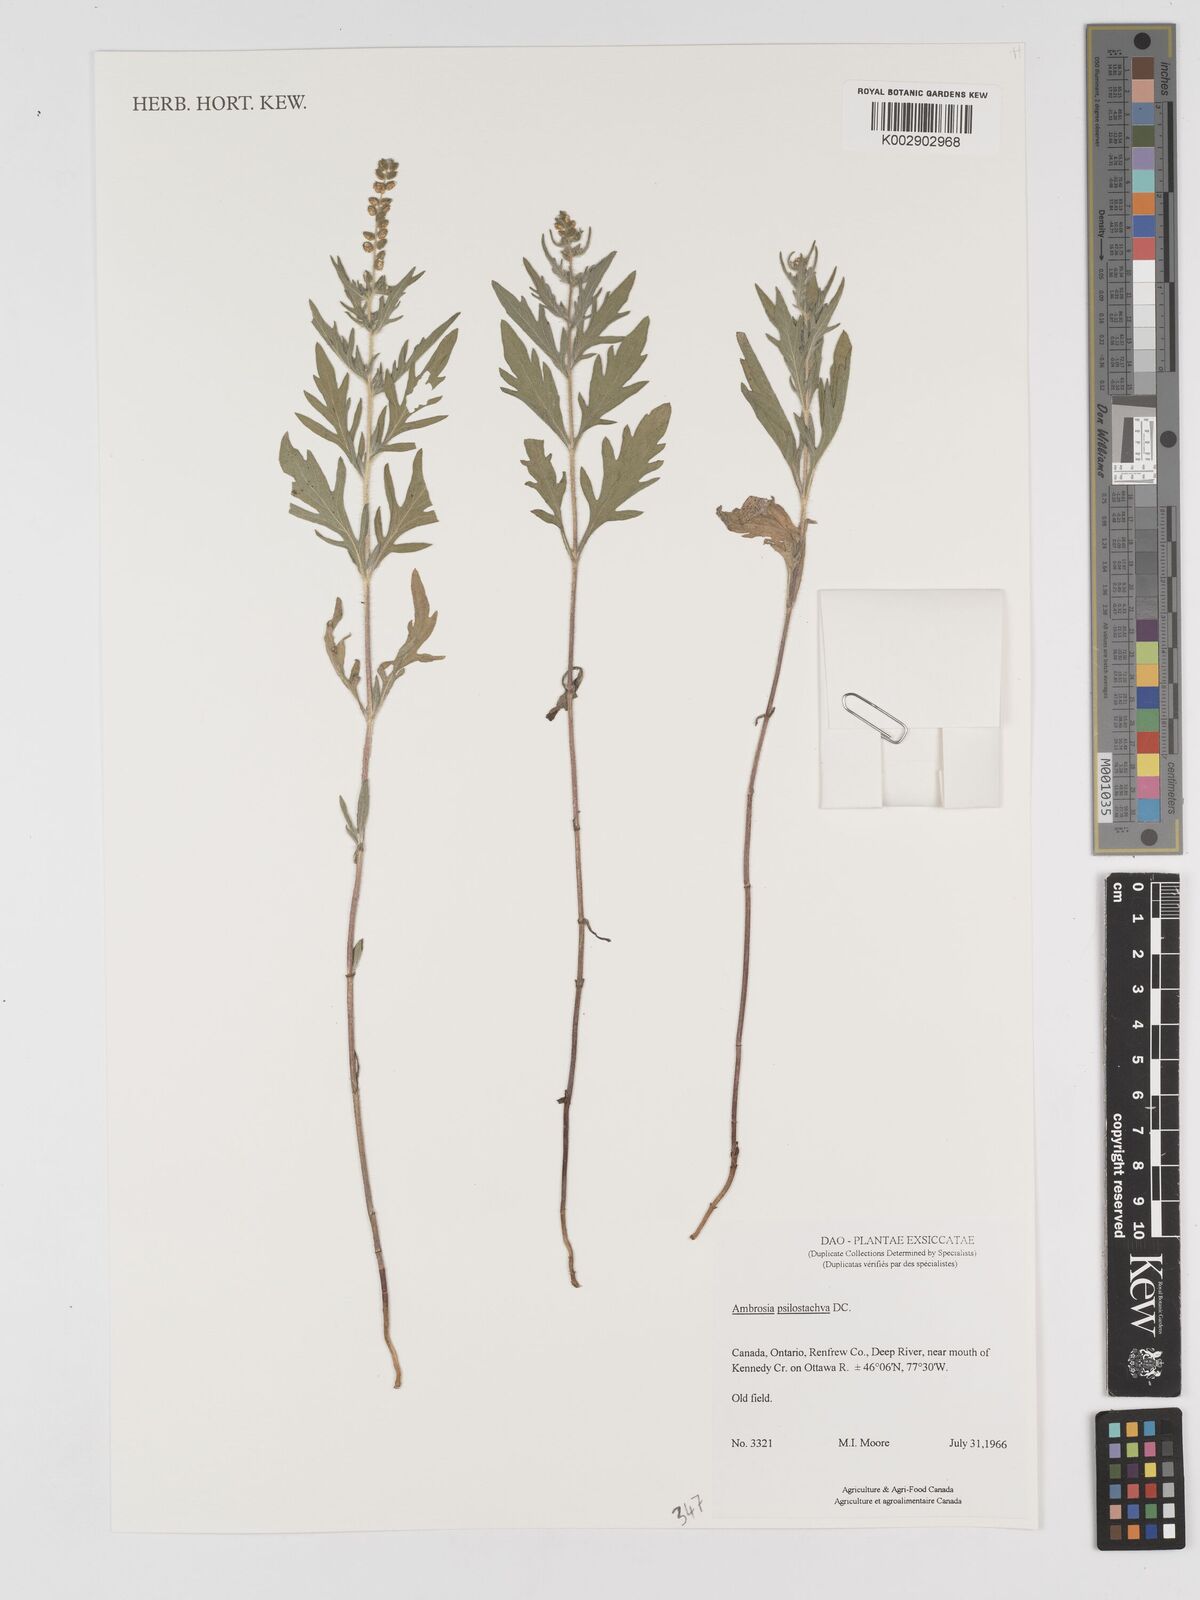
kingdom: Plantae
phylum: Tracheophyta
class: Magnoliopsida
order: Asterales
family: Asteraceae
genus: Ambrosia
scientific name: Ambrosia psilostachya
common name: Perennial ragweed
